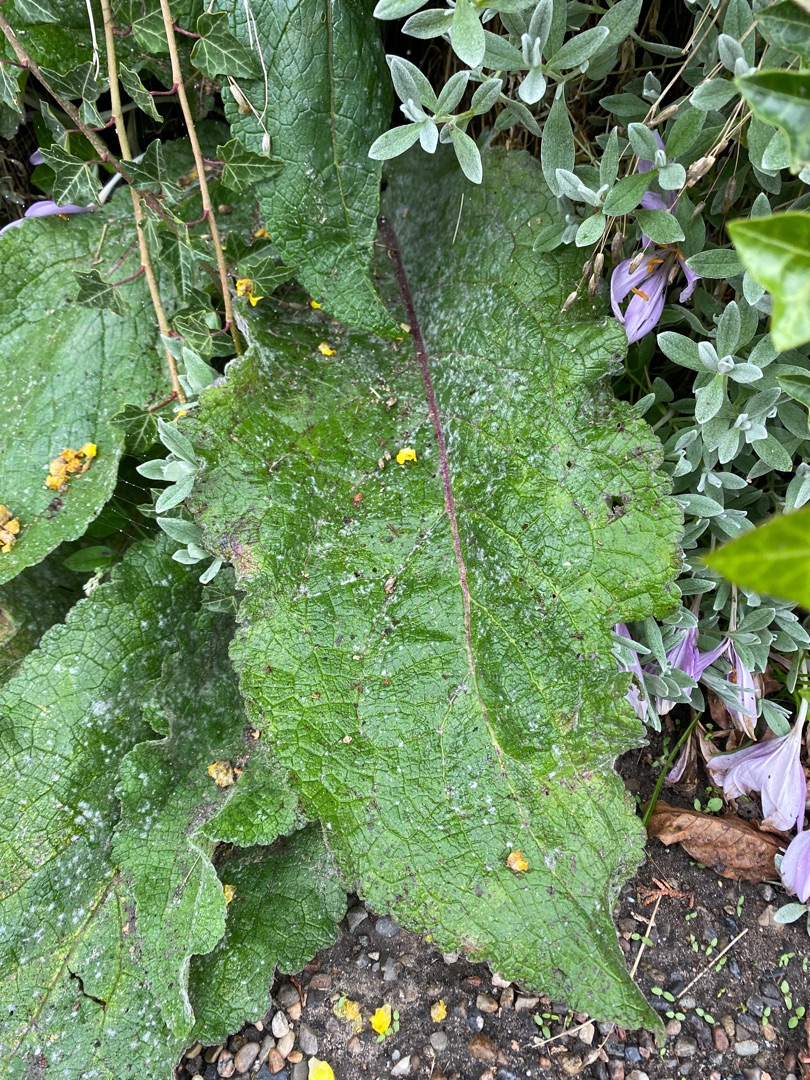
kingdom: Plantae
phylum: Tracheophyta
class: Magnoliopsida
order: Lamiales
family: Scrophulariaceae
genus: Verbascum
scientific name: Verbascum nigrum
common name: Mørk kongelys
